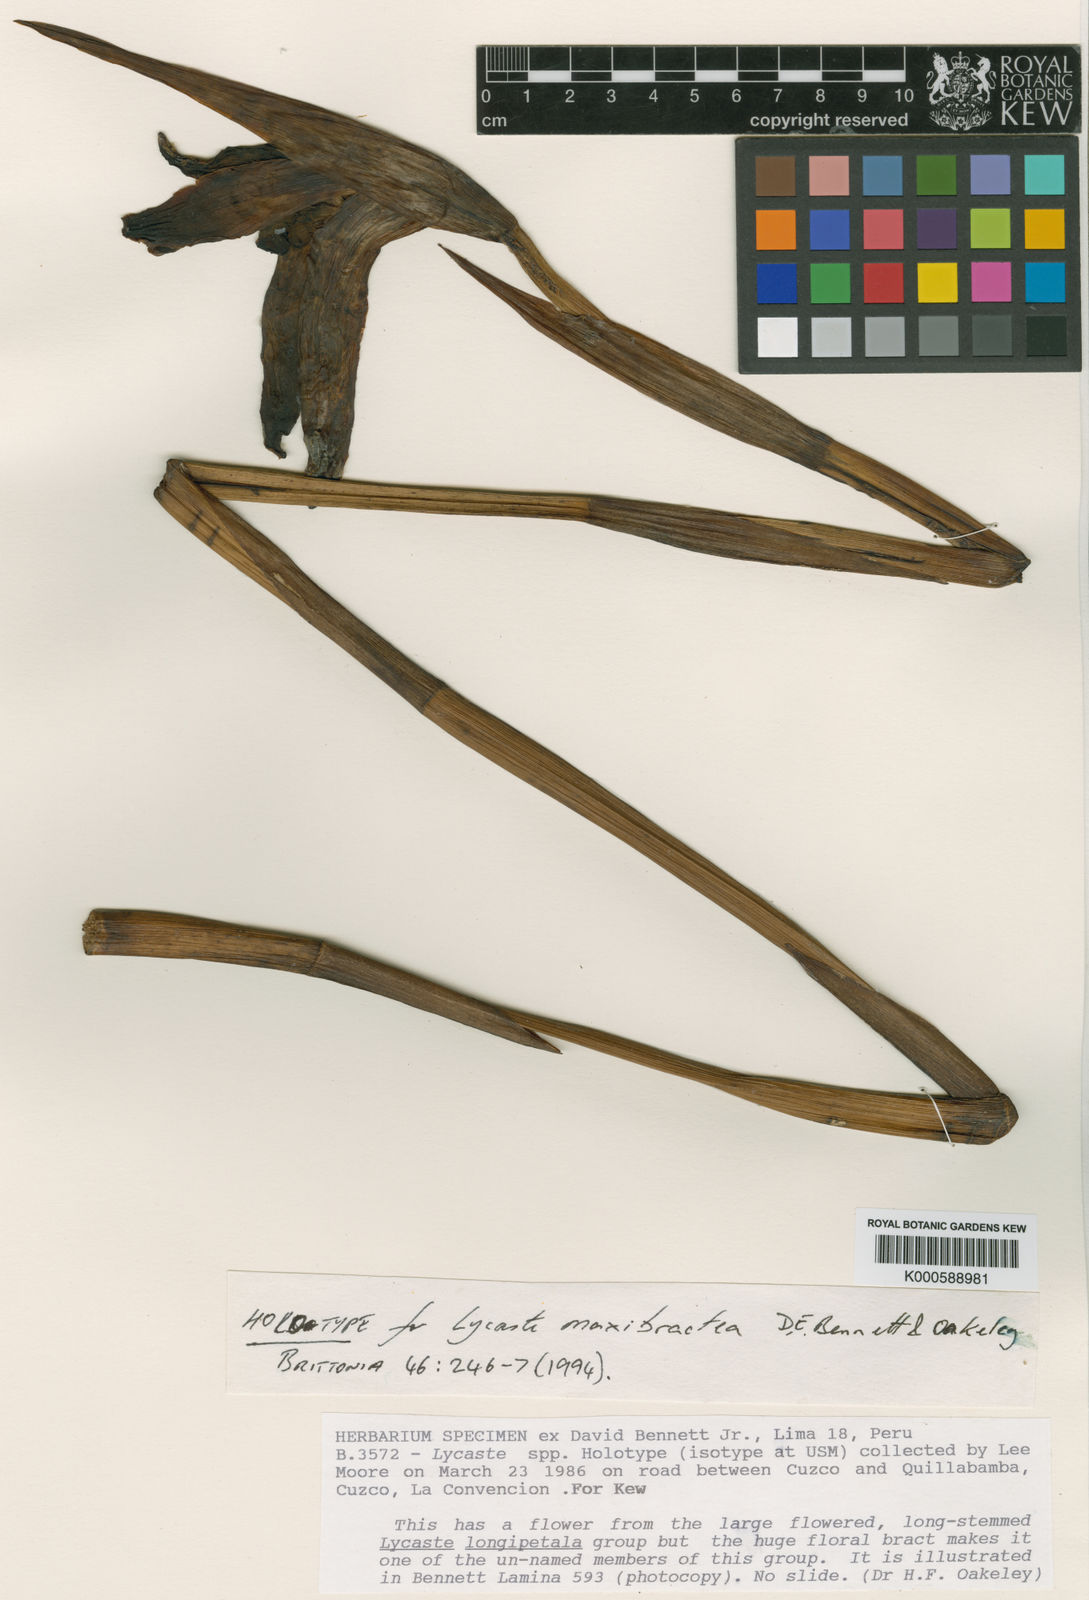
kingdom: Plantae
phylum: Tracheophyta
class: Liliopsida
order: Asparagales
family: Orchidaceae
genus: Ida
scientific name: Ida maxibractea
